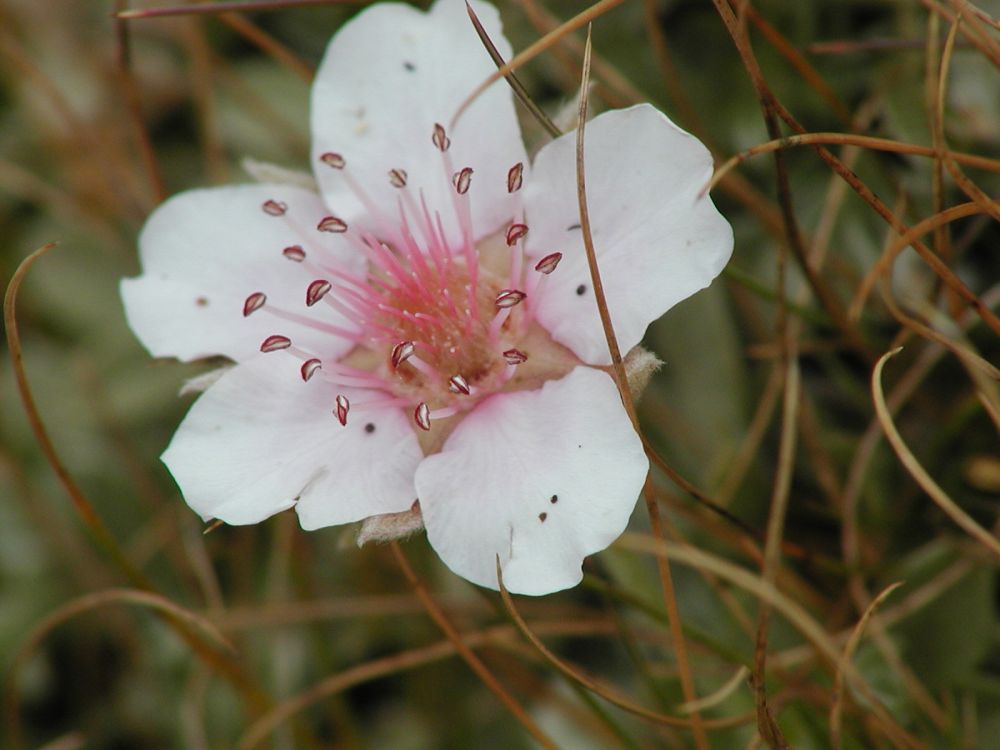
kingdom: Plantae
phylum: Tracheophyta
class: Magnoliopsida
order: Rosales
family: Rosaceae
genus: Potentilla
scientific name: Potentilla nitida
